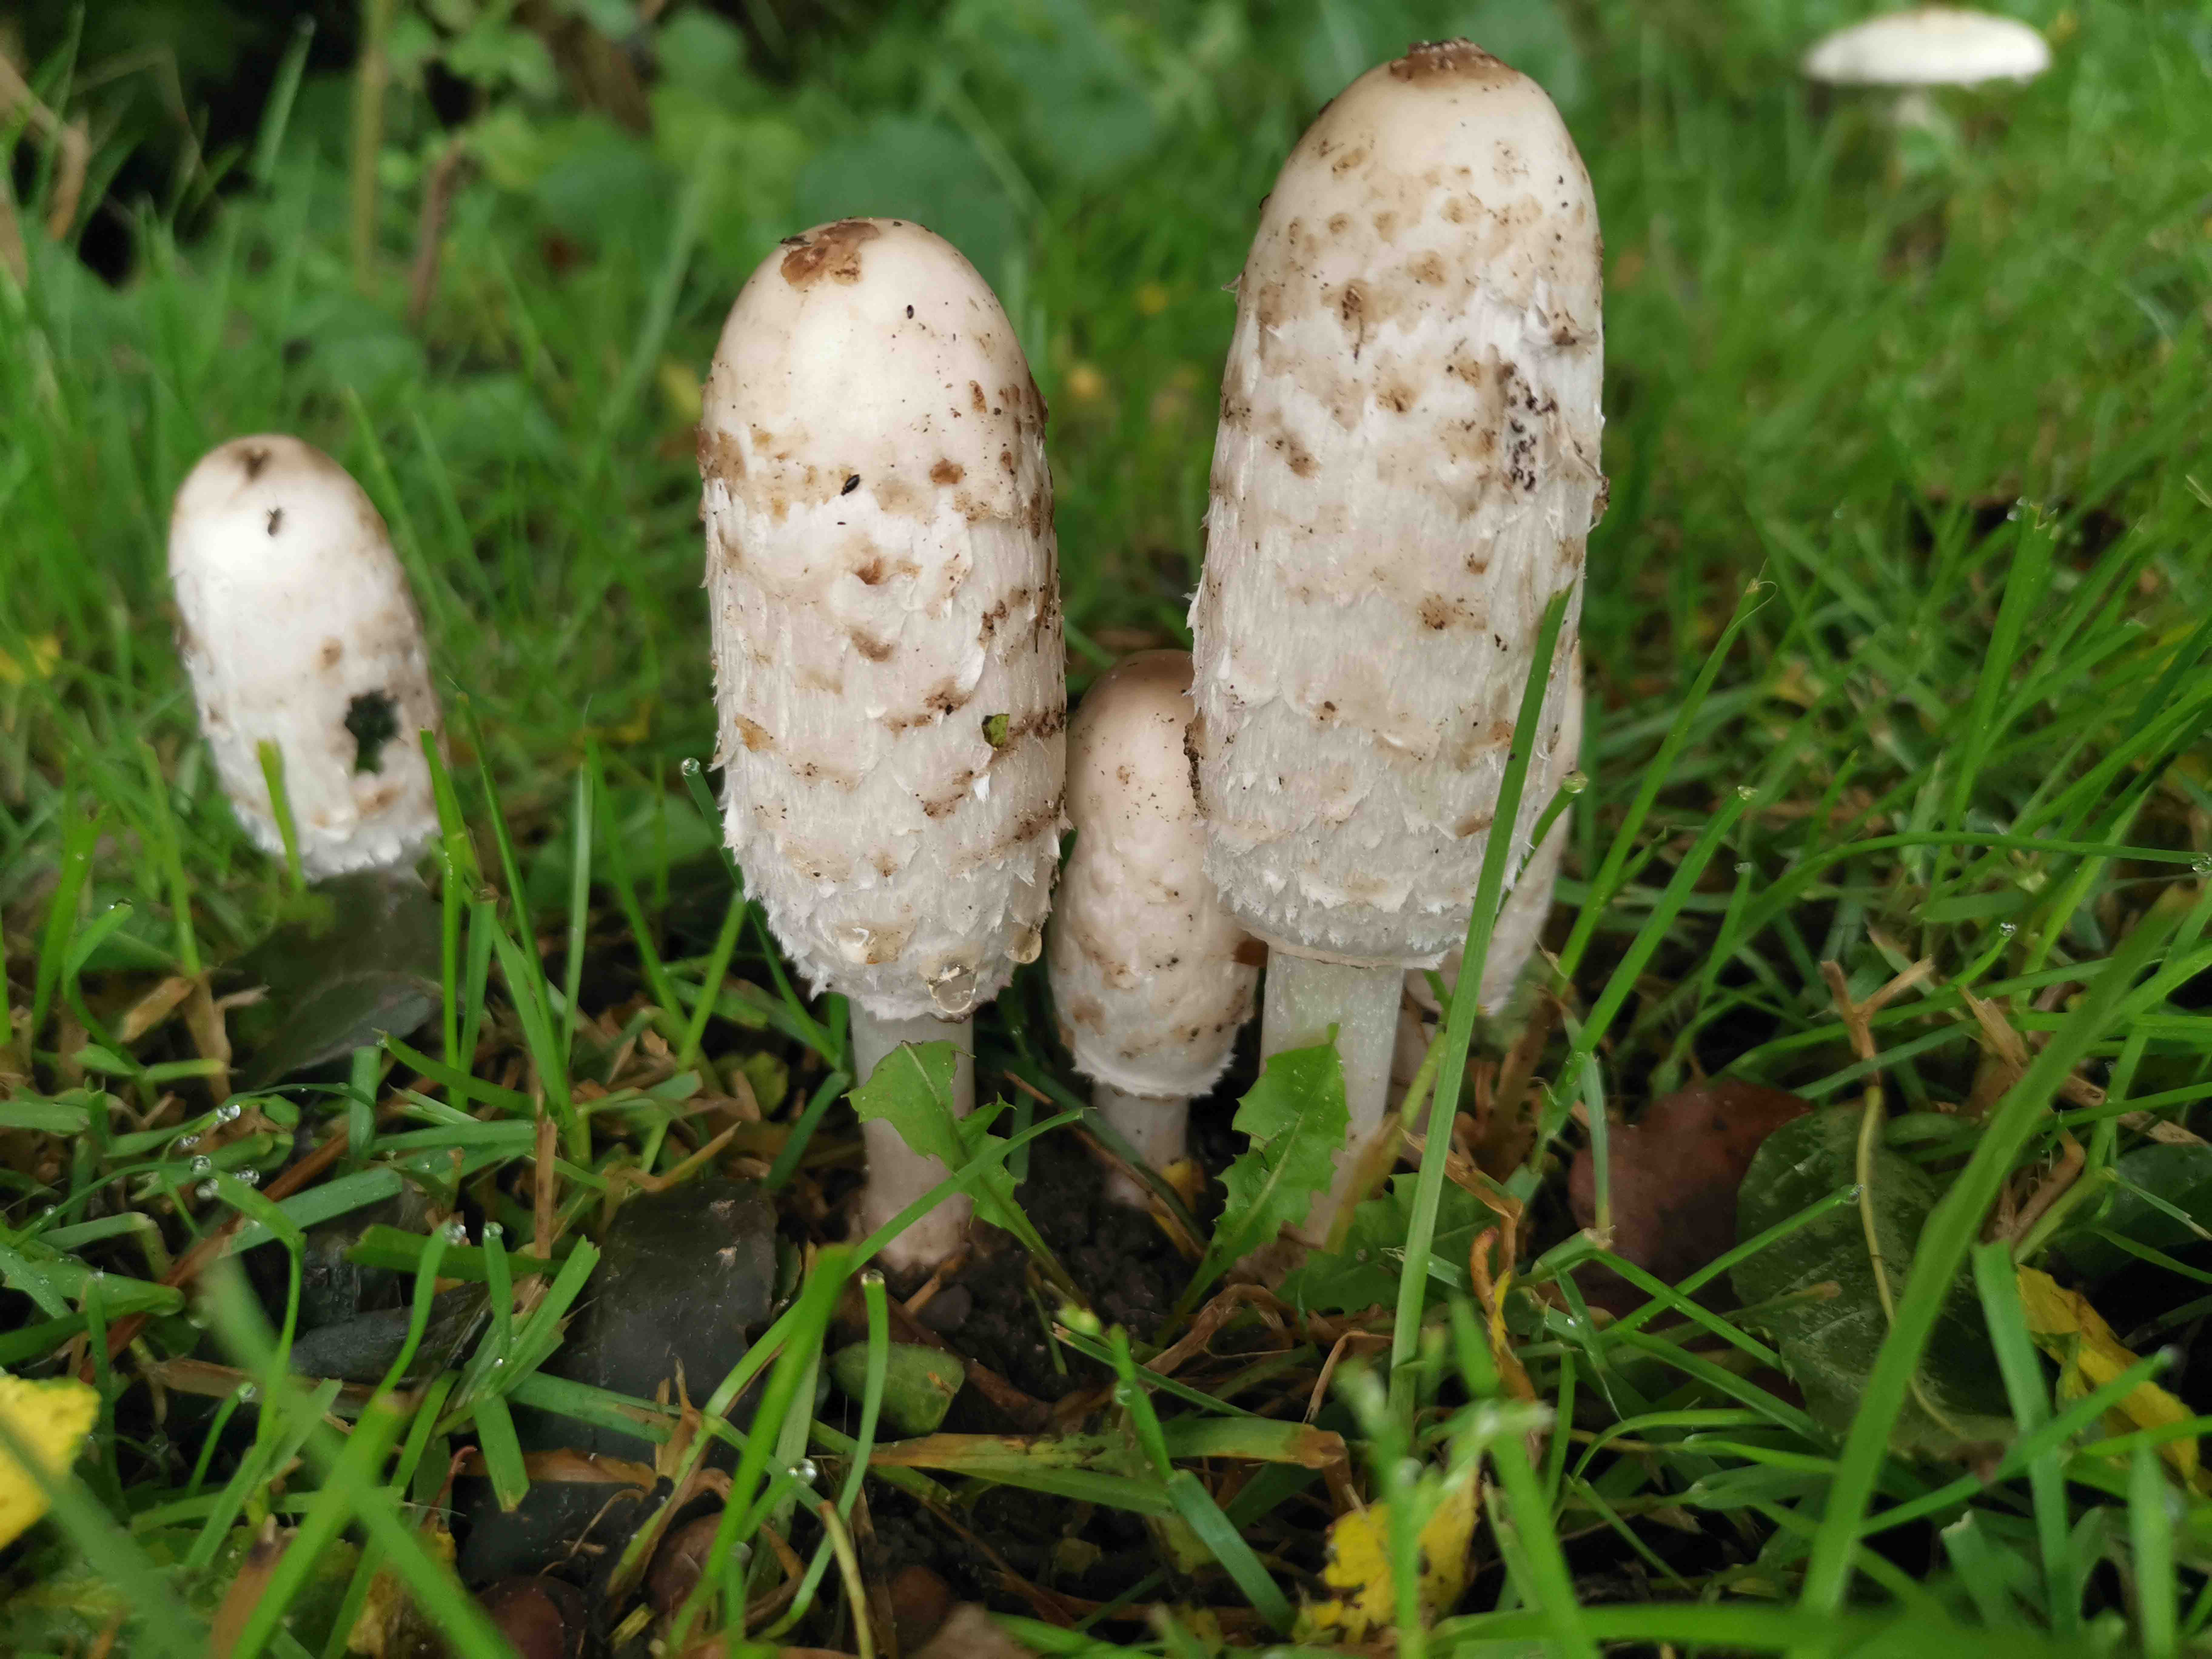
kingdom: Fungi
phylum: Basidiomycota
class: Agaricomycetes
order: Agaricales
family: Agaricaceae
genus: Coprinus
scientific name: Coprinus comatus
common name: stor parykhat
